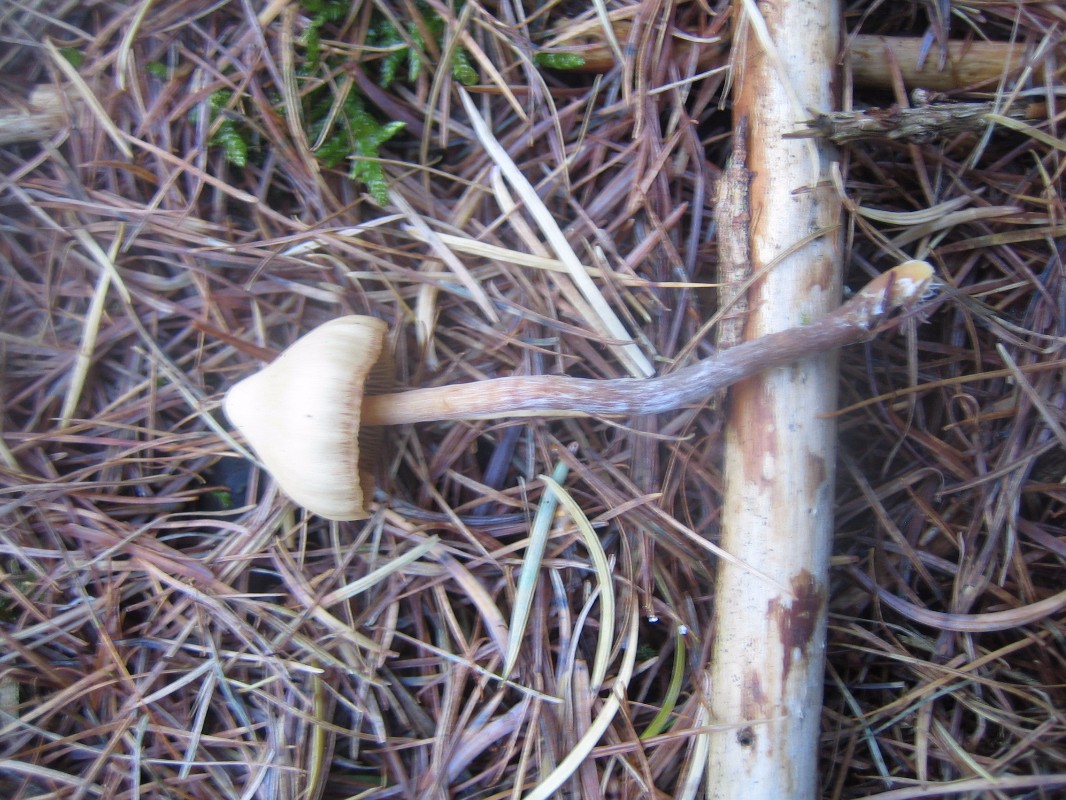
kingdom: Fungi
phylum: Basidiomycota
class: Agaricomycetes
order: Agaricales
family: Hymenogastraceae
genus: Galerina
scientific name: Galerina sideroides
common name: træflis-hjelmhat
